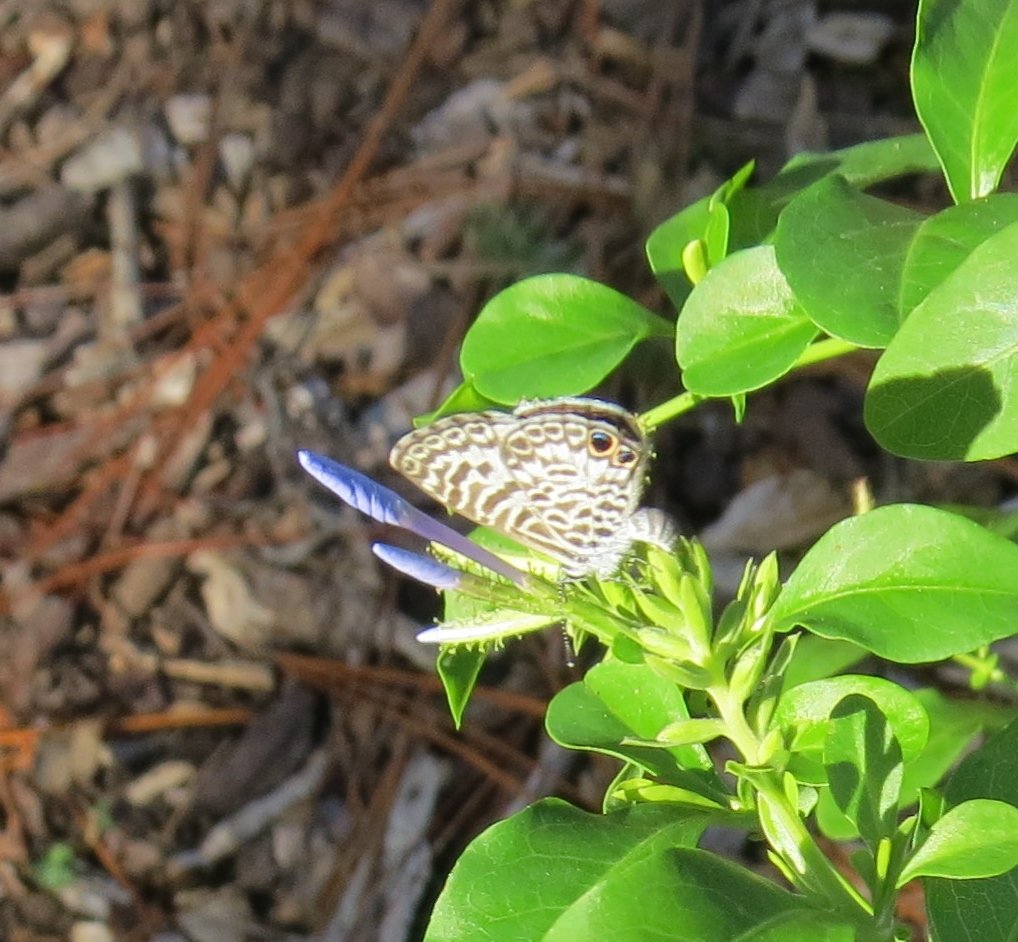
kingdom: Animalia
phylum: Arthropoda
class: Insecta
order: Lepidoptera
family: Lycaenidae
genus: Leptotes
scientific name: Leptotes cassius
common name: Cassius Blue
